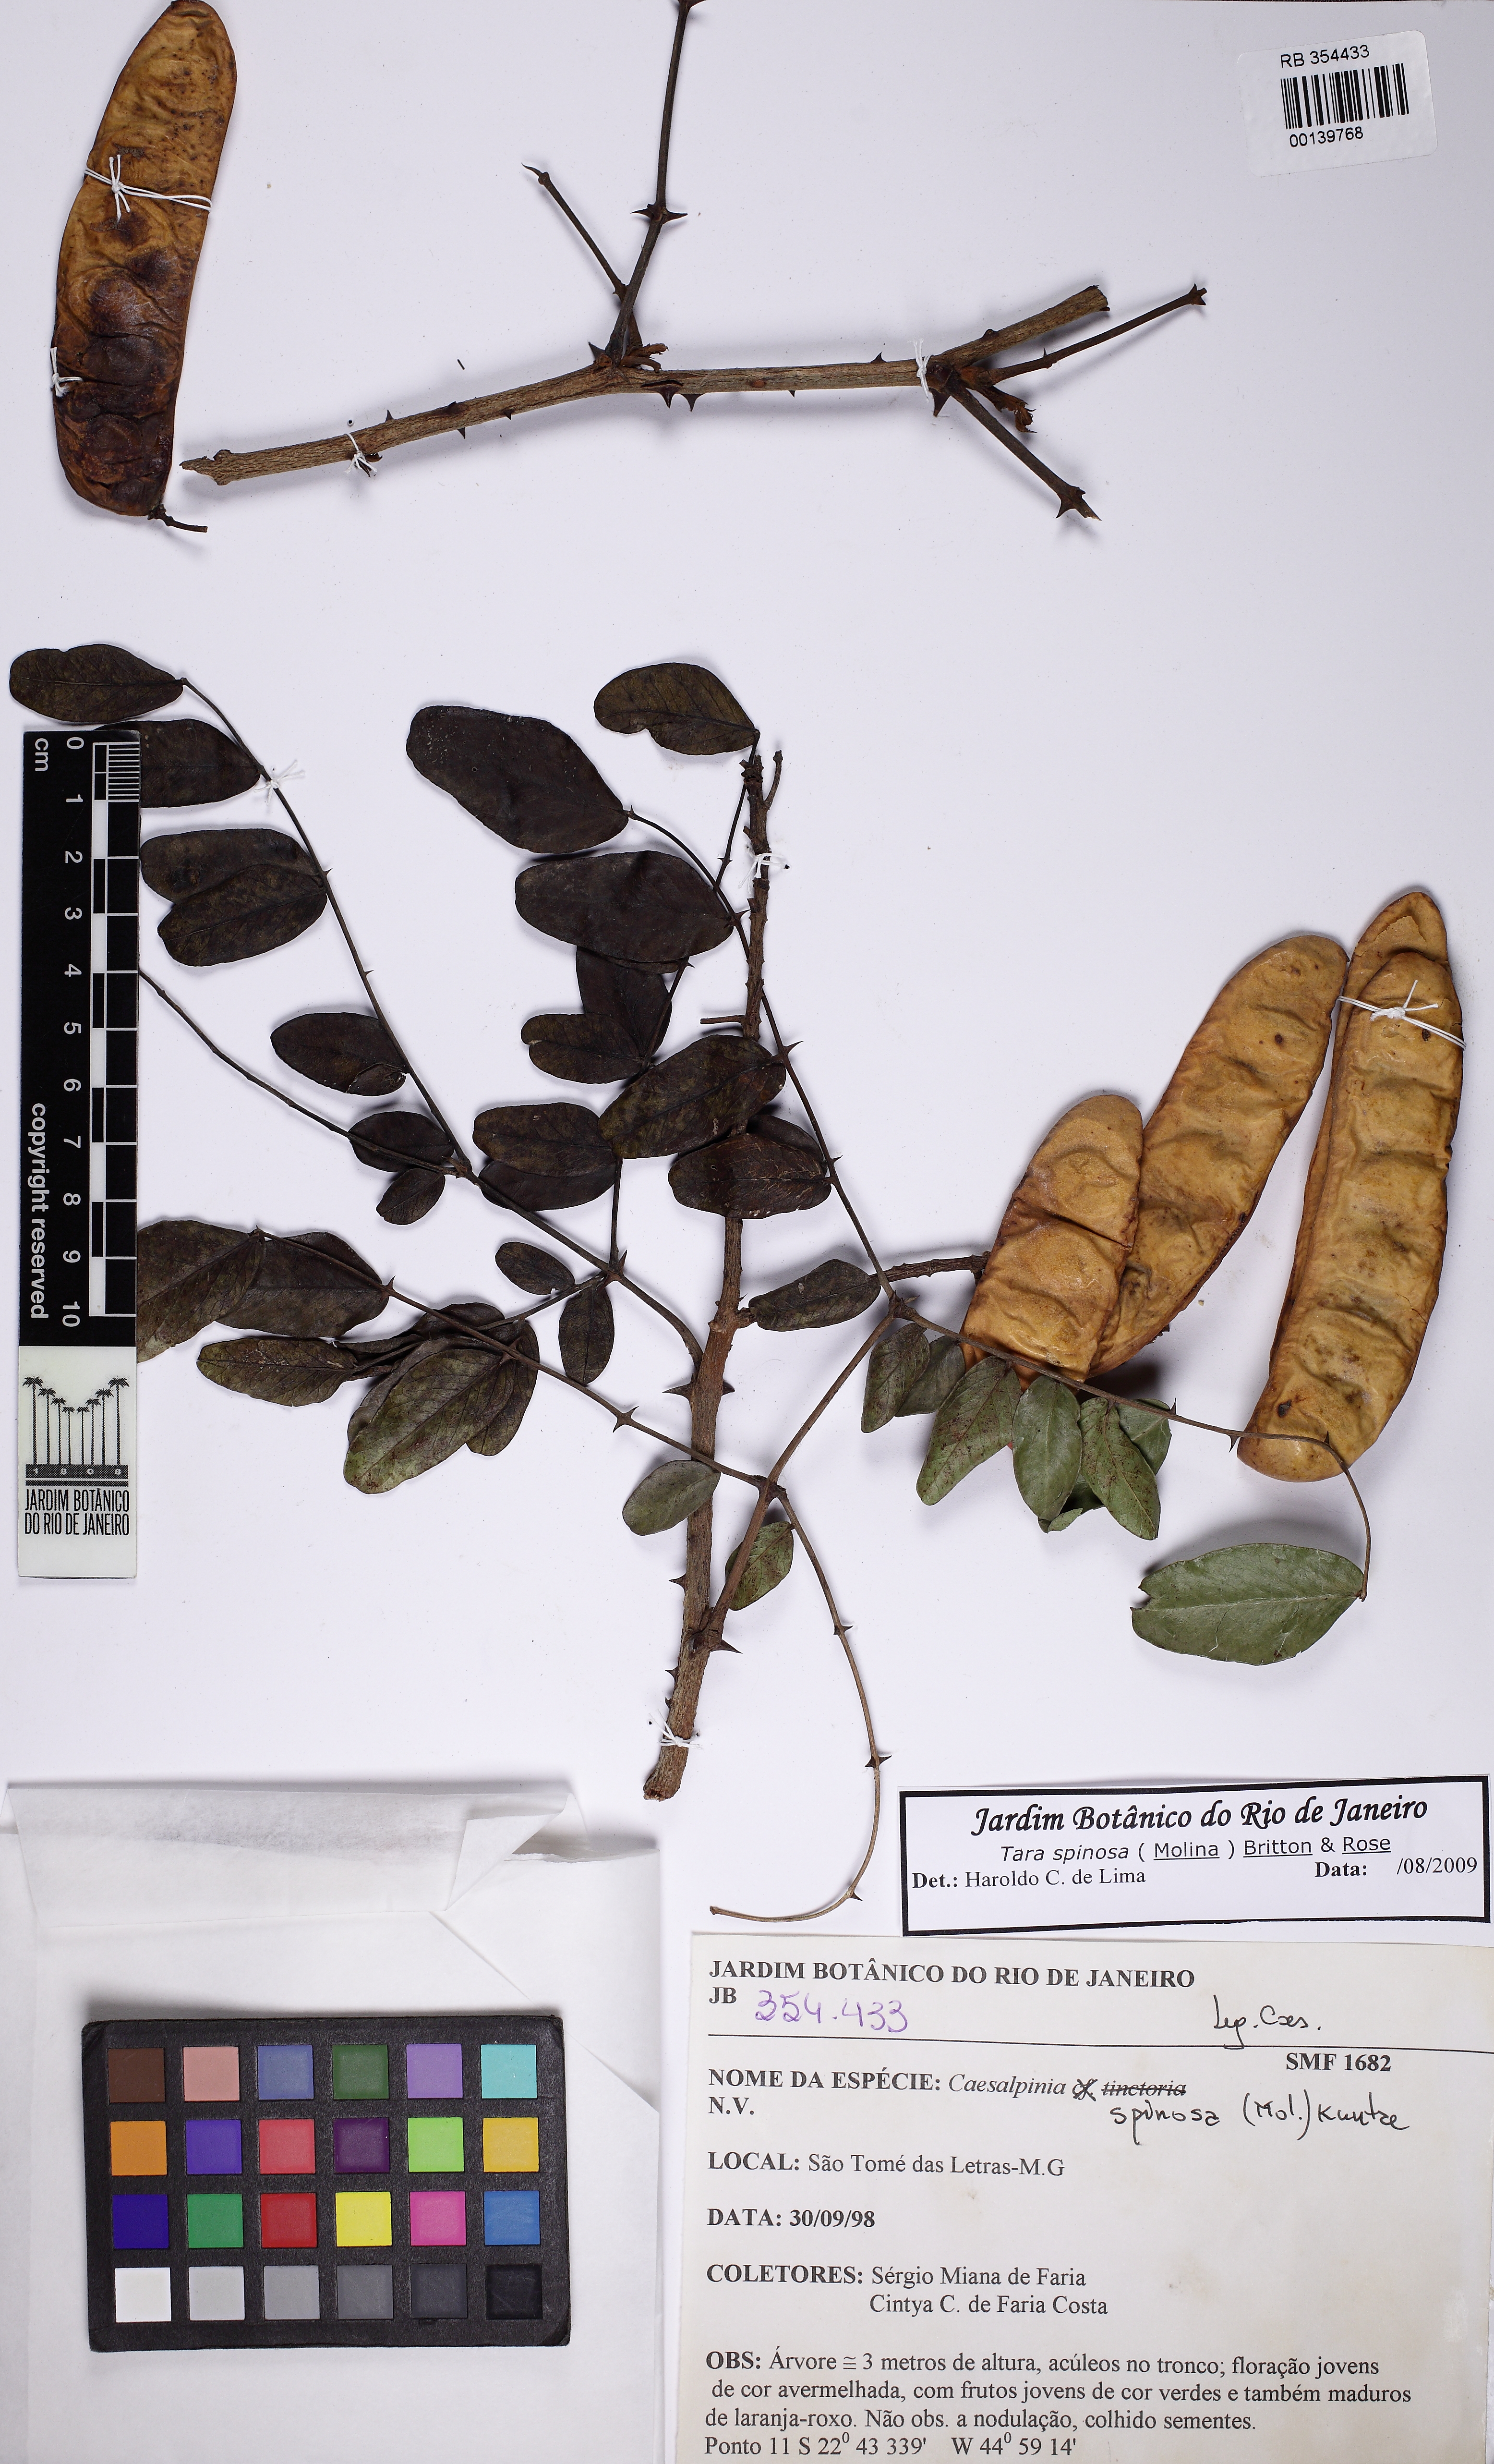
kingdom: Plantae
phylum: Tracheophyta
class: Magnoliopsida
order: Fabales
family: Fabaceae
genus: Tara
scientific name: Tara spinosa
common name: Spiny holdback
